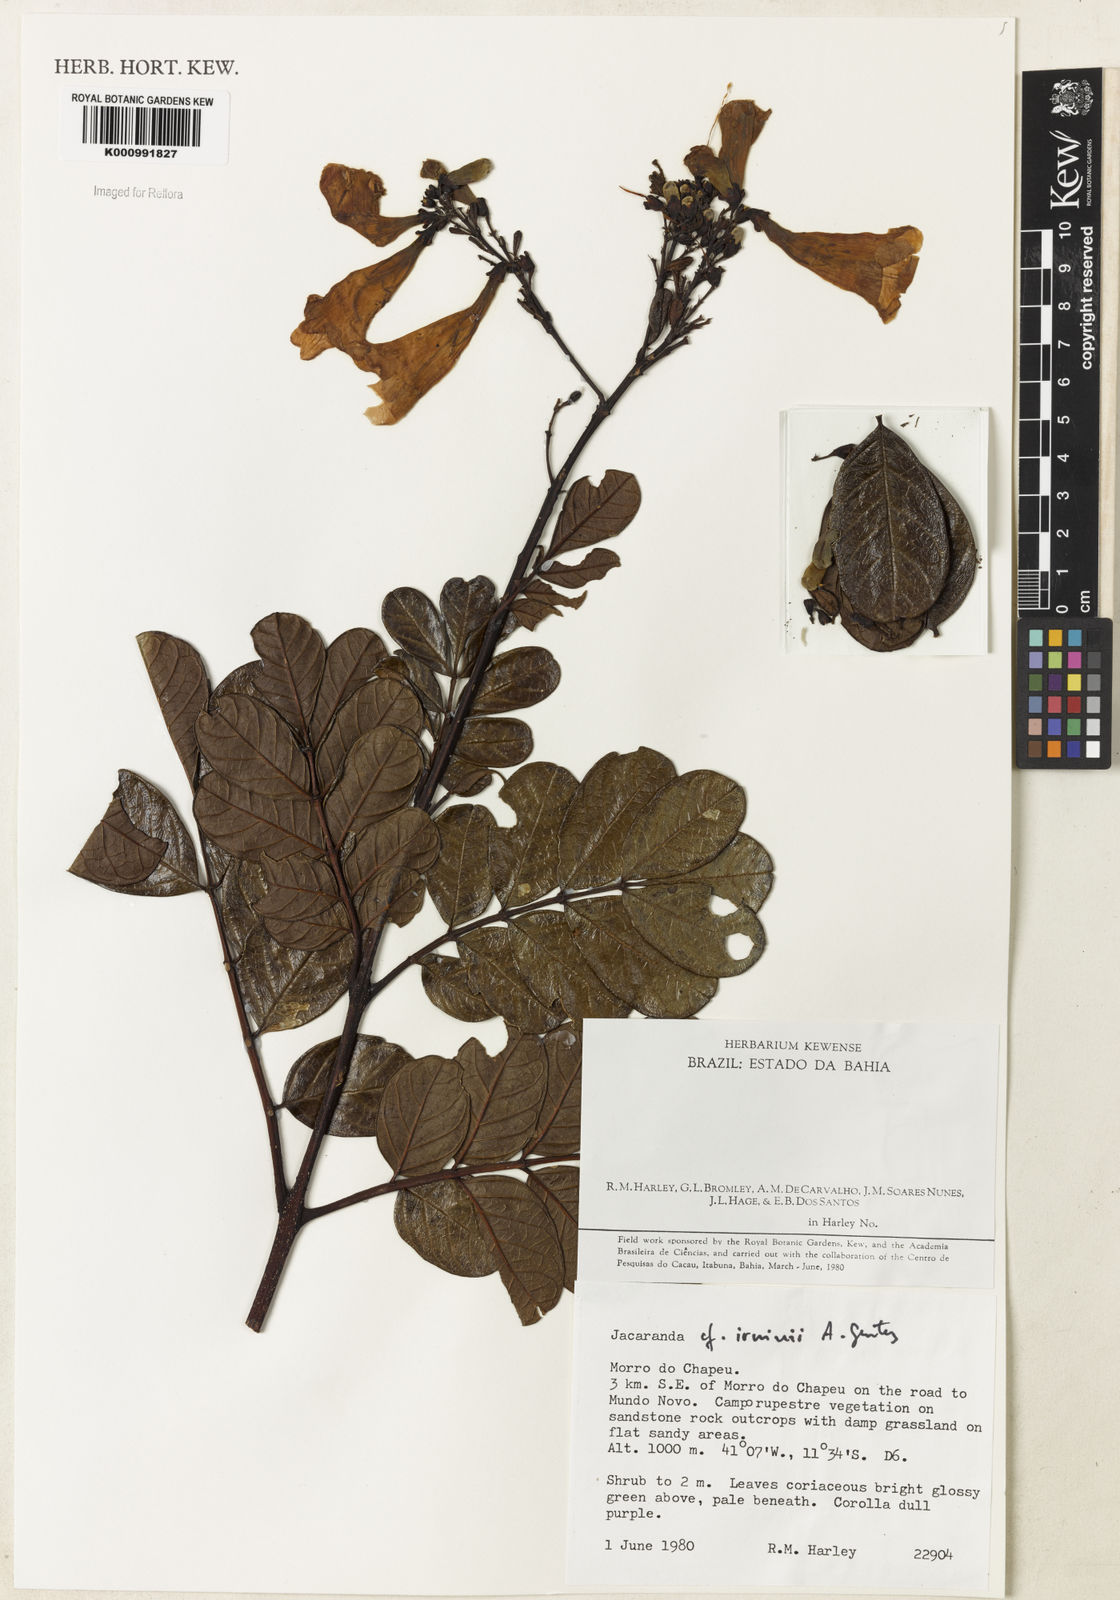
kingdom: Plantae
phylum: Tracheophyta
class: Magnoliopsida
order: Lamiales
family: Bignoniaceae
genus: Jacaranda
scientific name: Jacaranda irwinii
